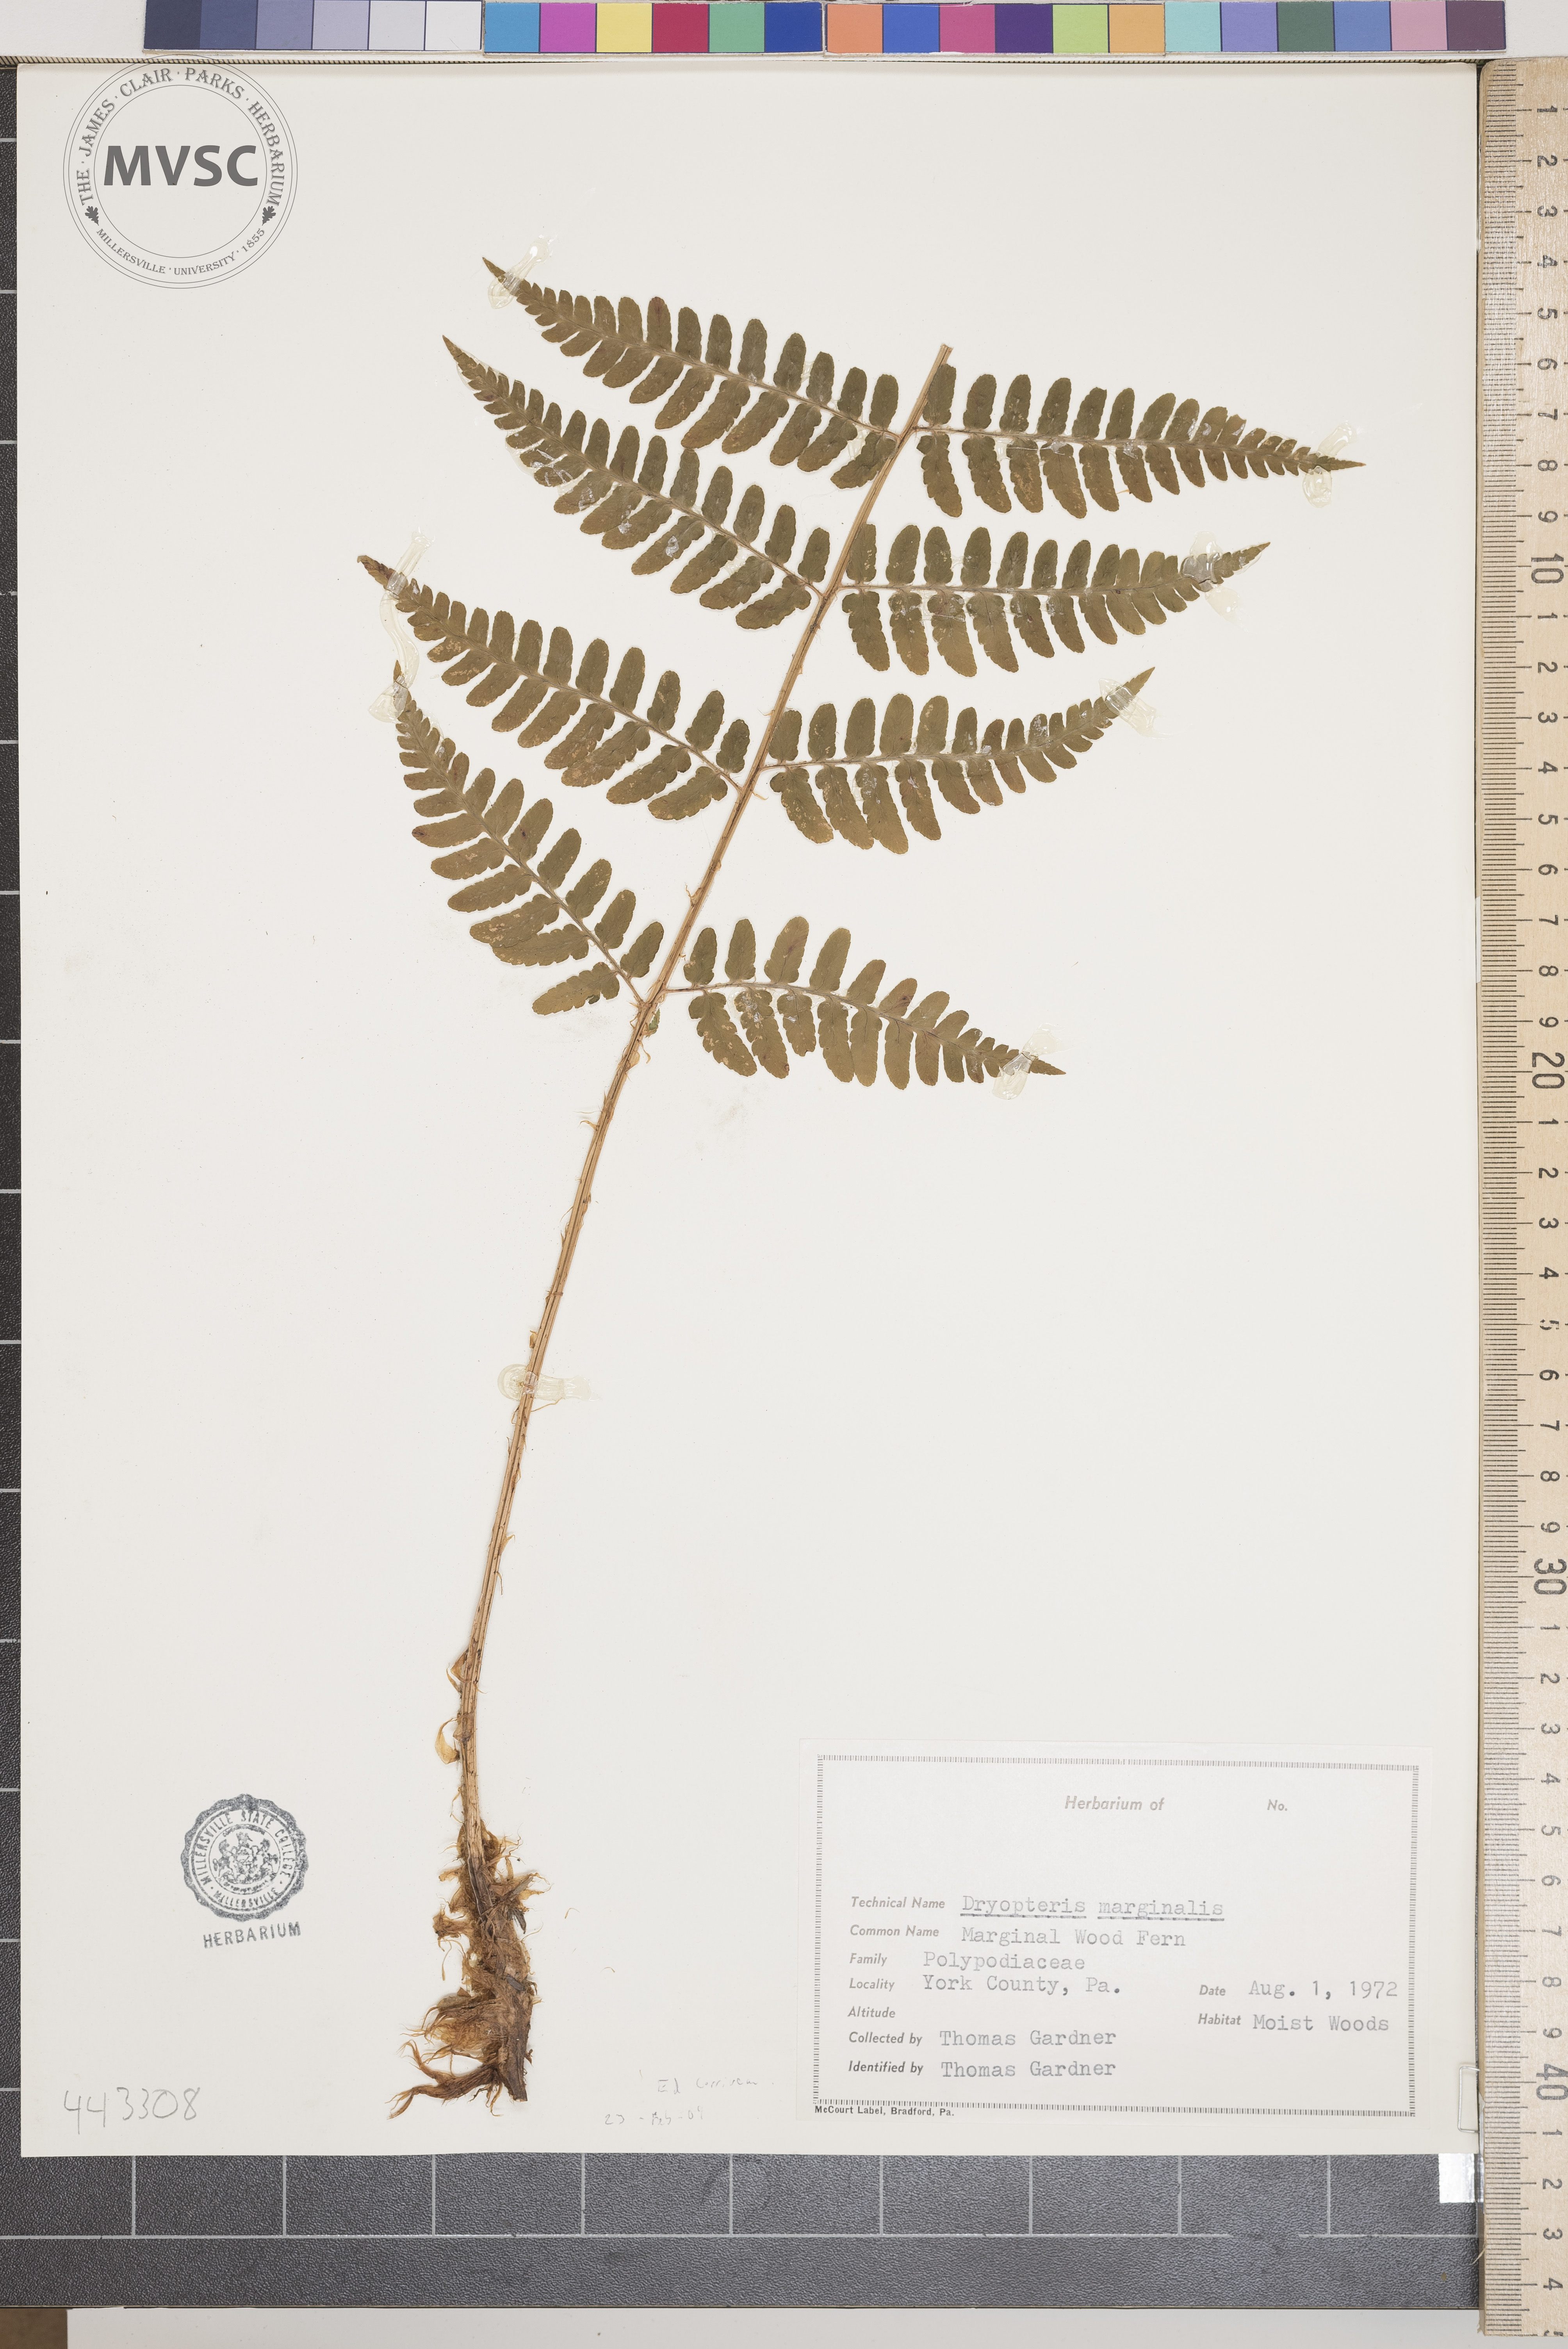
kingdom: Plantae
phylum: Tracheophyta
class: Polypodiopsida
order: Polypodiales
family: Dryopteridaceae
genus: Dryopteris
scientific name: Dryopteris marginalis
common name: Marginal woodfern
